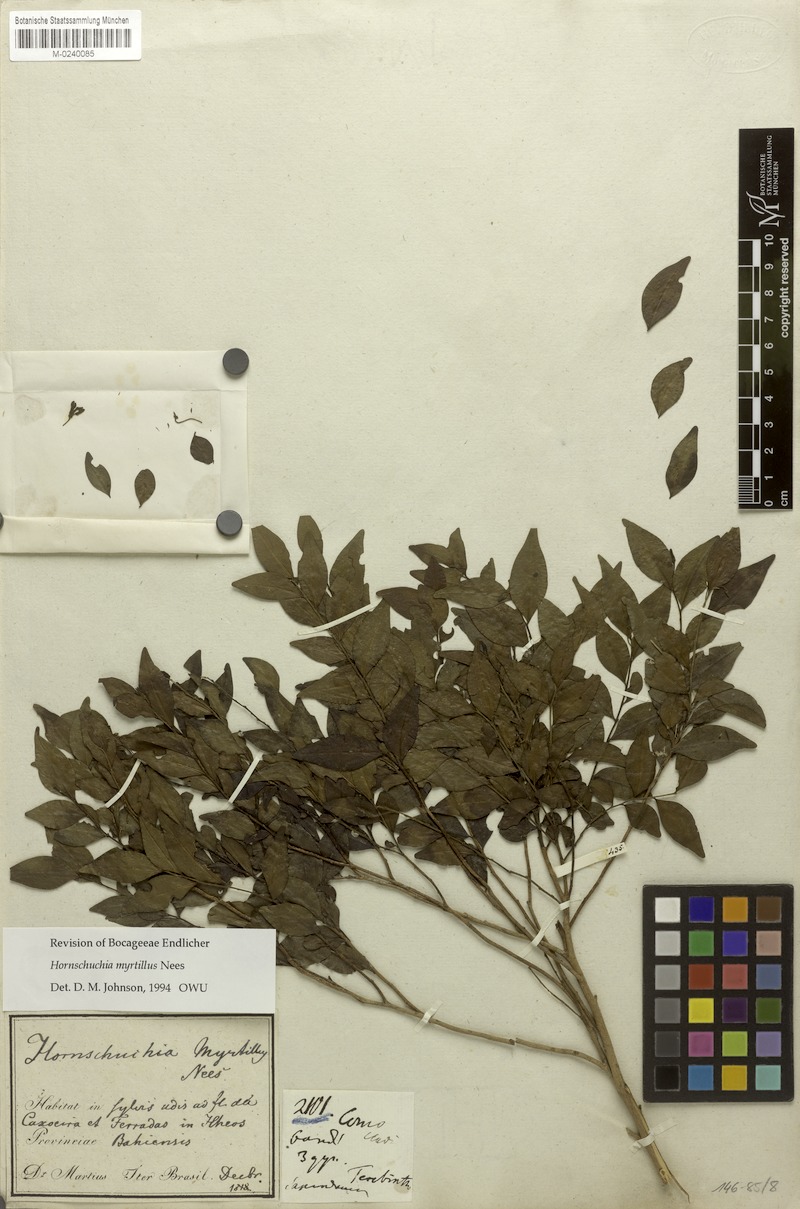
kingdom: Plantae
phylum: Tracheophyta
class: Magnoliopsida
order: Magnoliales
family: Annonaceae
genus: Hornschuchia
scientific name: Hornschuchia myrtillus
